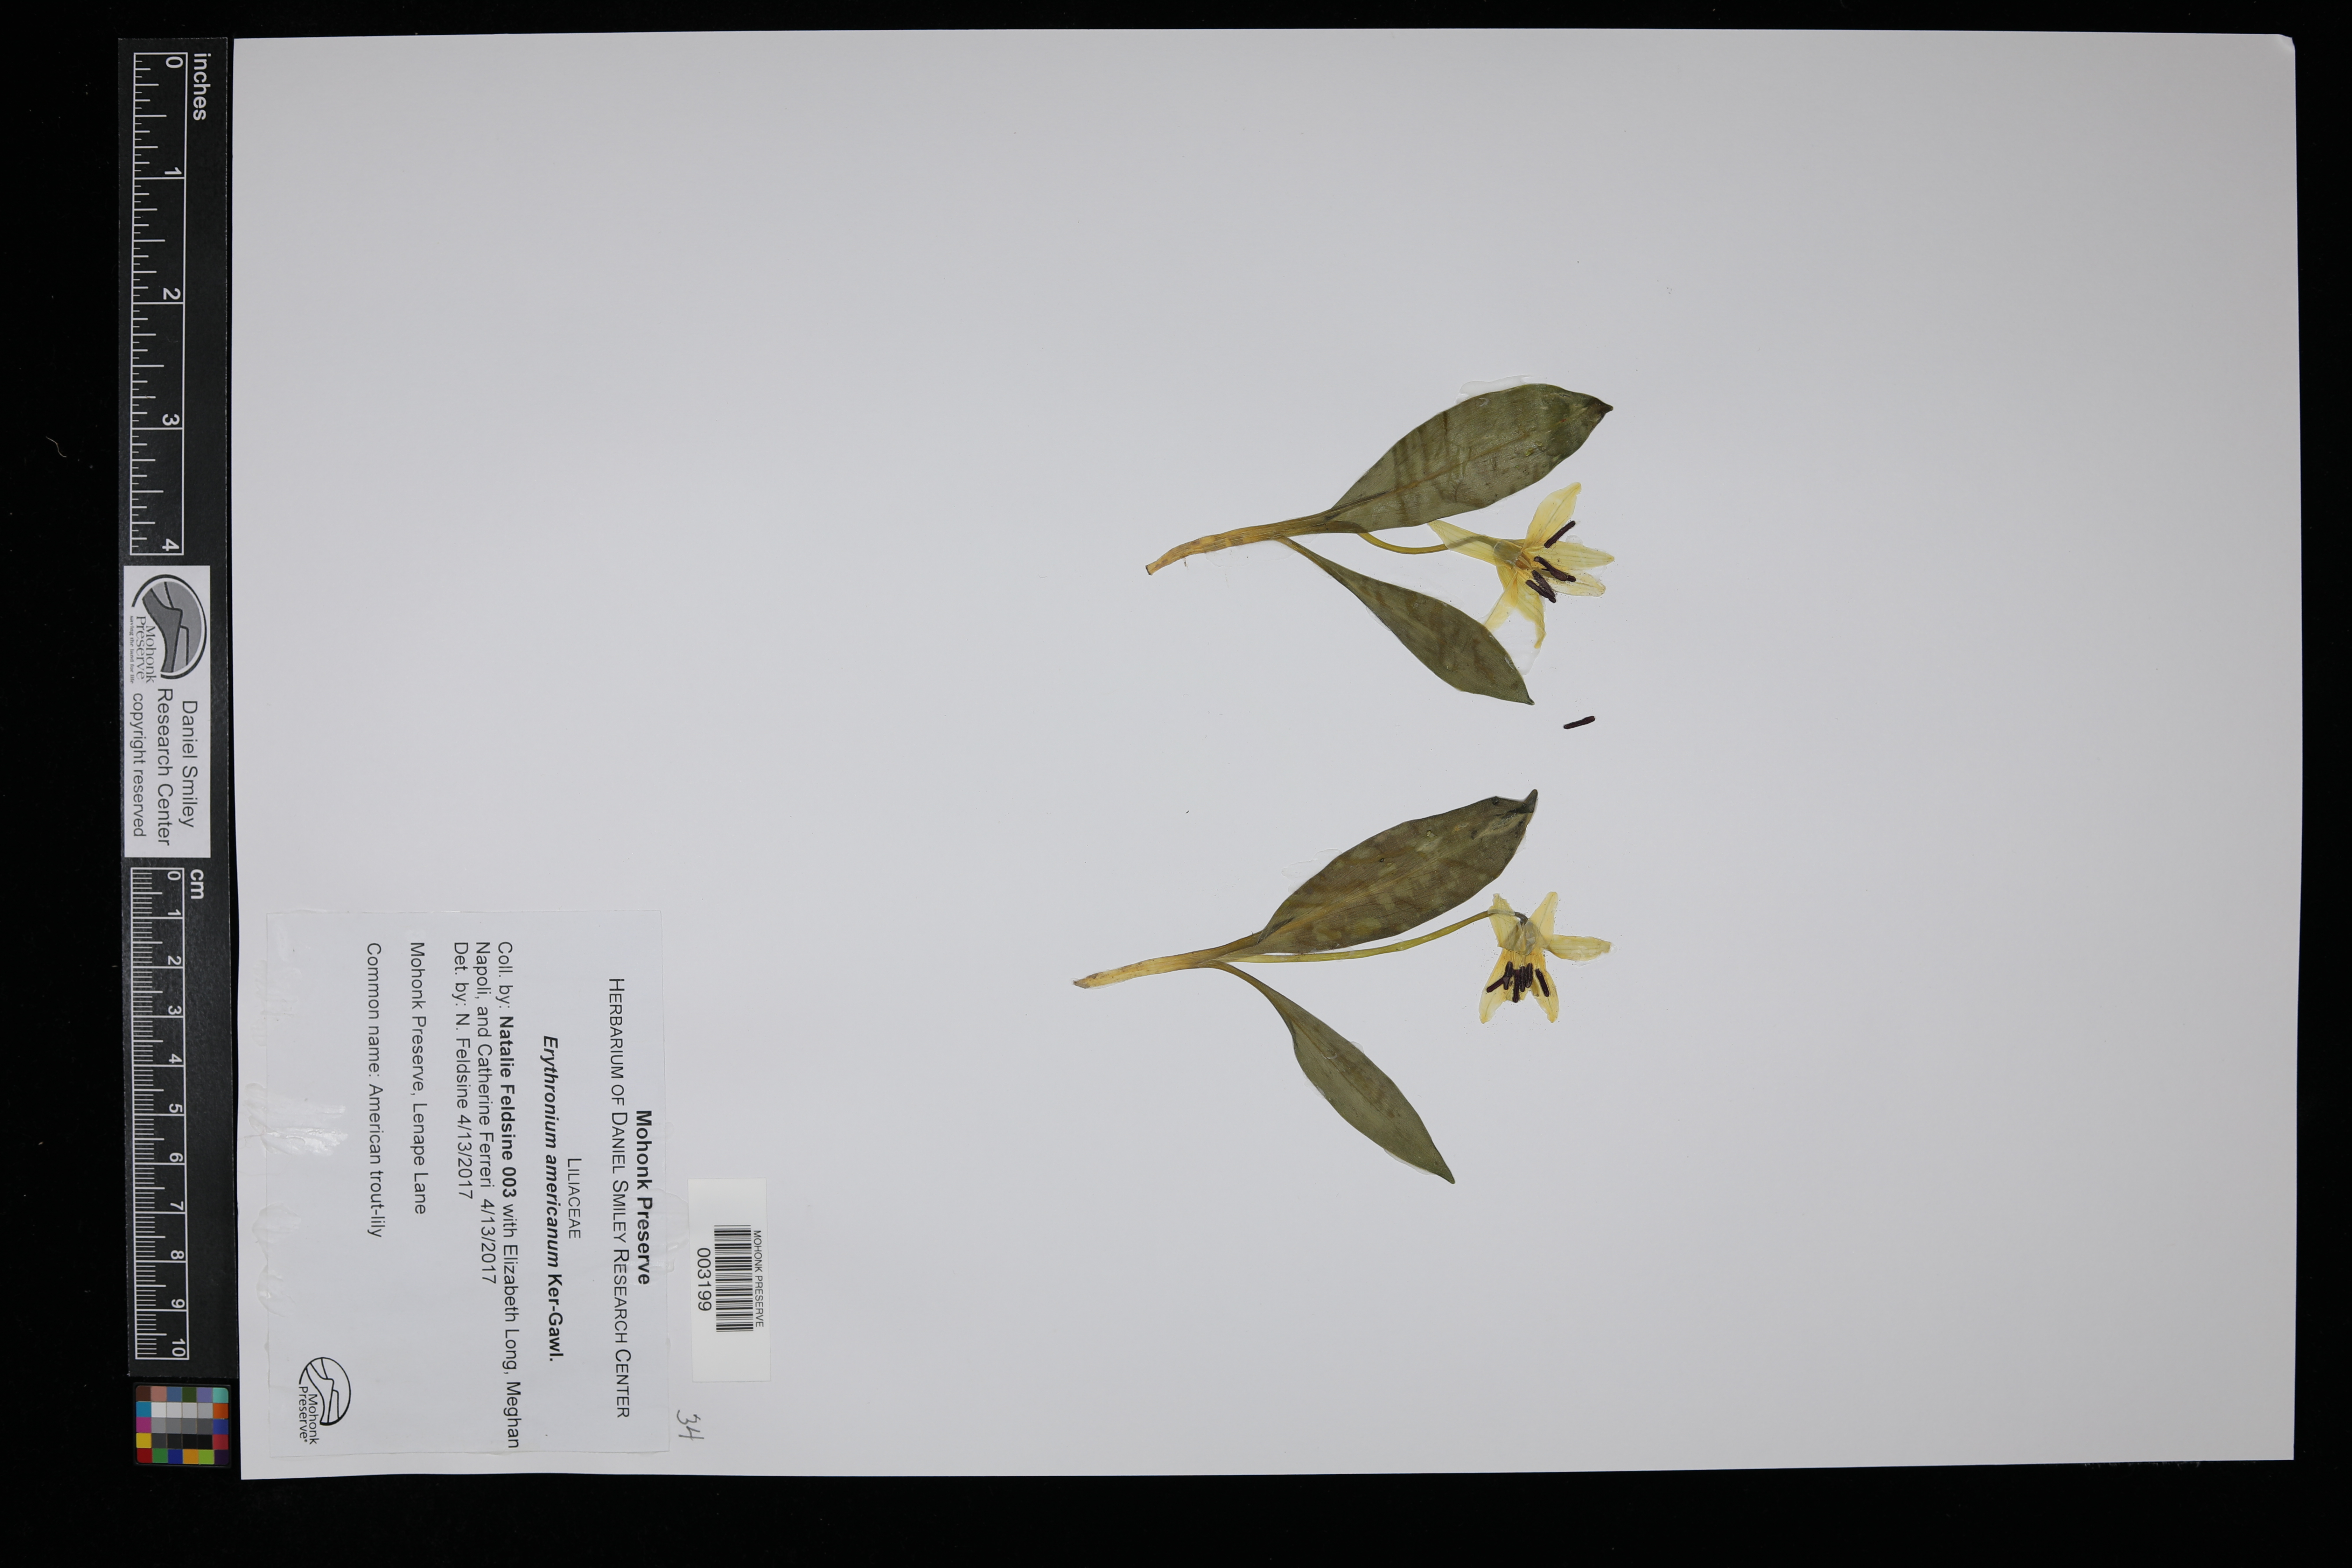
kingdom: Plantae
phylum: Tracheophyta
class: Liliopsida
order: Liliales
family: Liliaceae
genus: Erythronium
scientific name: Erythronium americanum
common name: Yellow adder's-tongue
